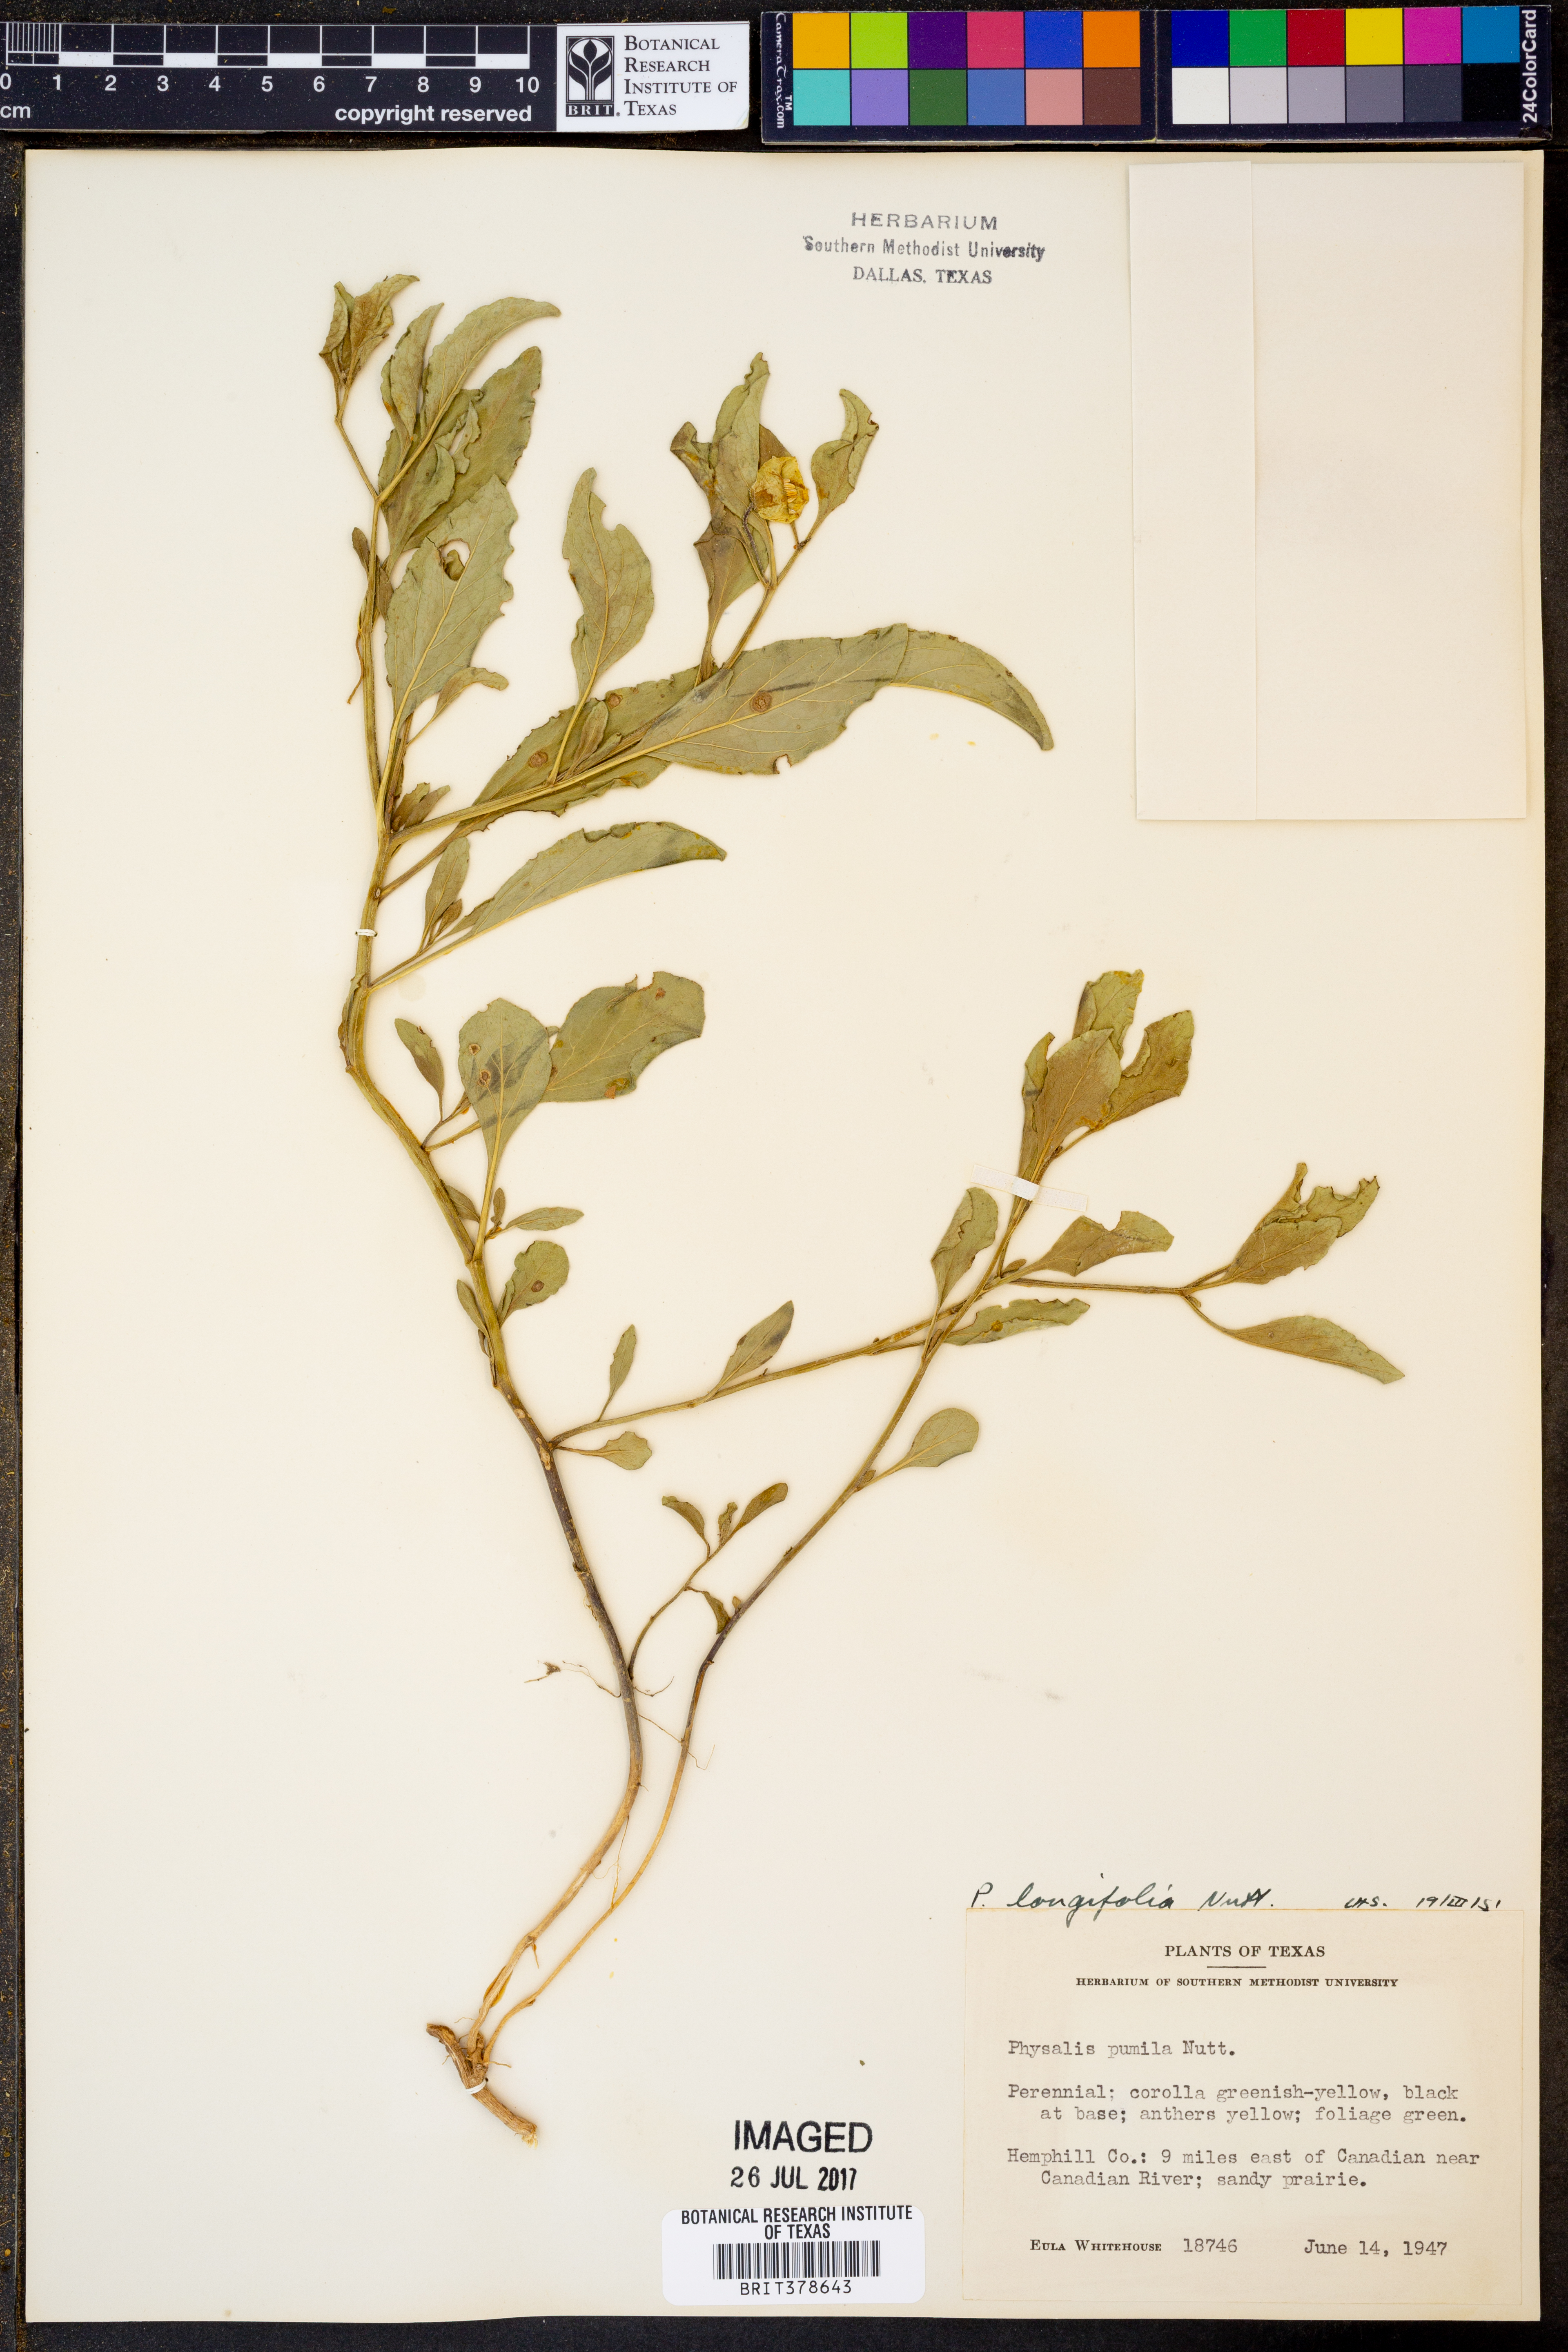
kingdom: Plantae
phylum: Tracheophyta
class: Magnoliopsida
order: Solanales
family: Solanaceae
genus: Physalis
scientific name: Physalis longifolia
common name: Common ground-cherry
